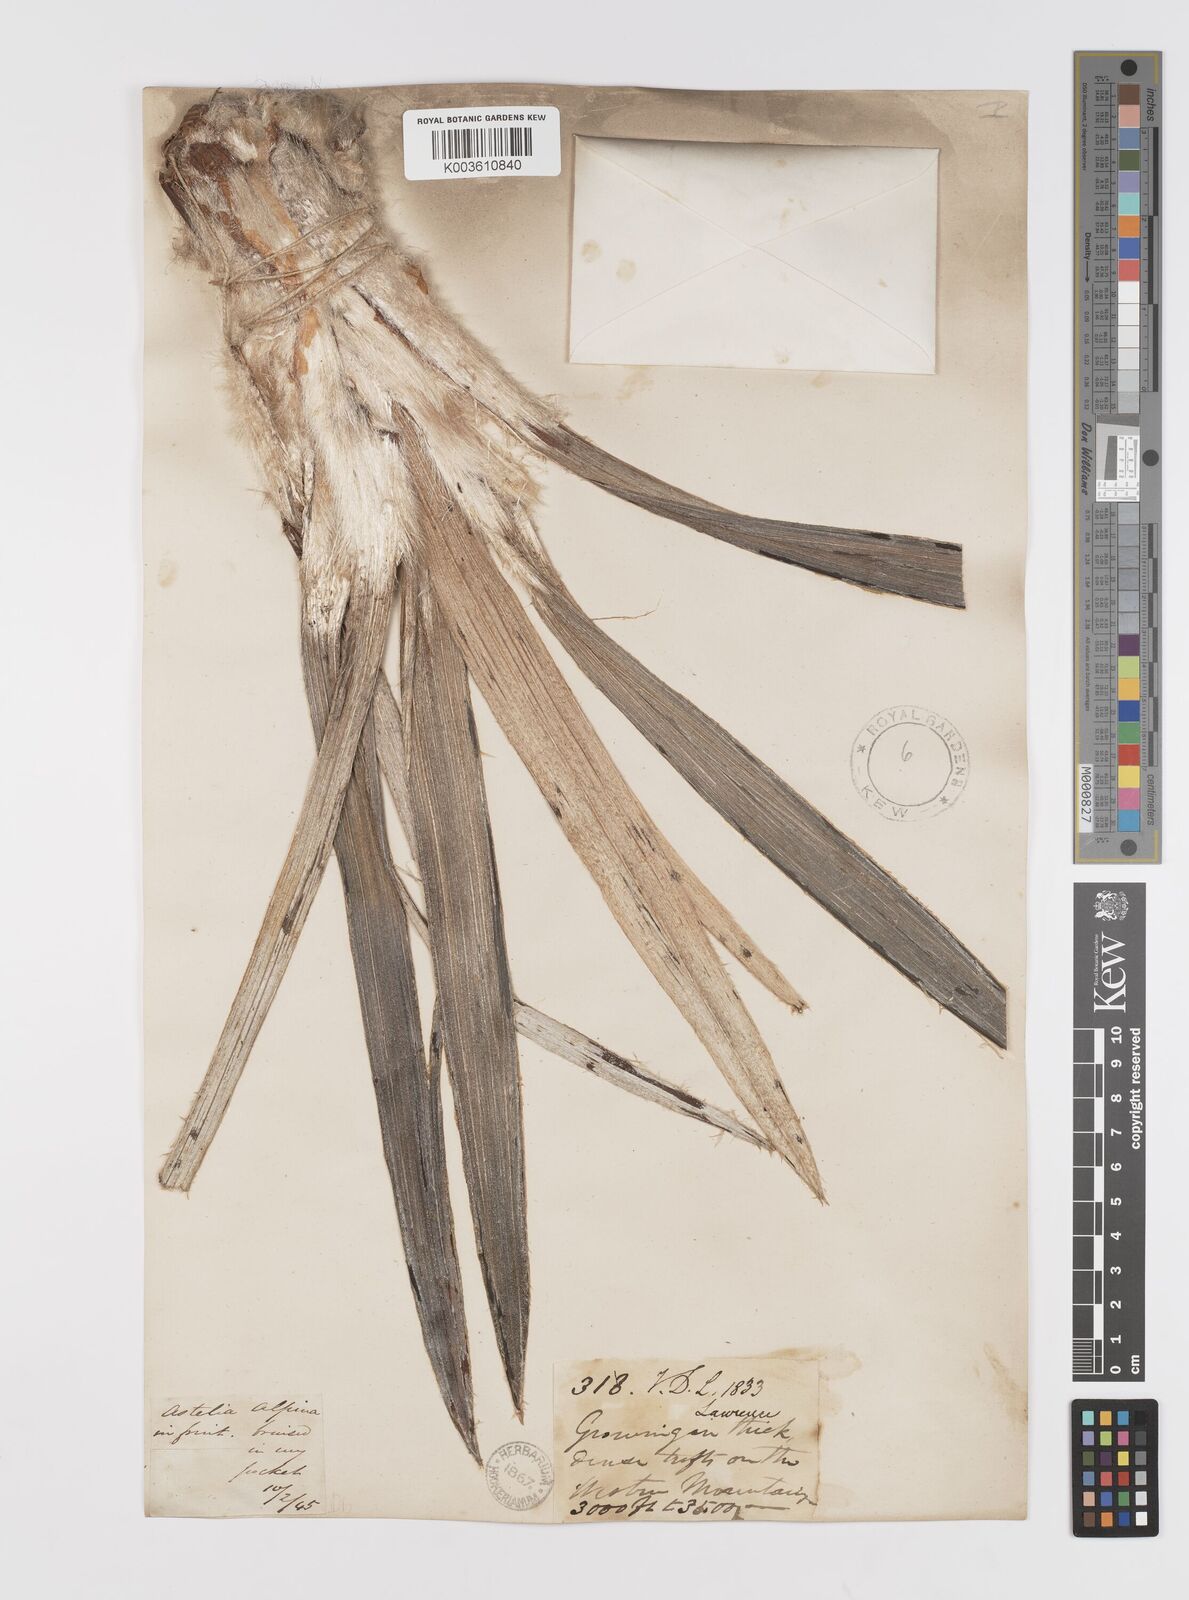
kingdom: Plantae
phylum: Tracheophyta
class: Liliopsida
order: Asparagales
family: Asteliaceae
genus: Astelia
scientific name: Astelia alpina
